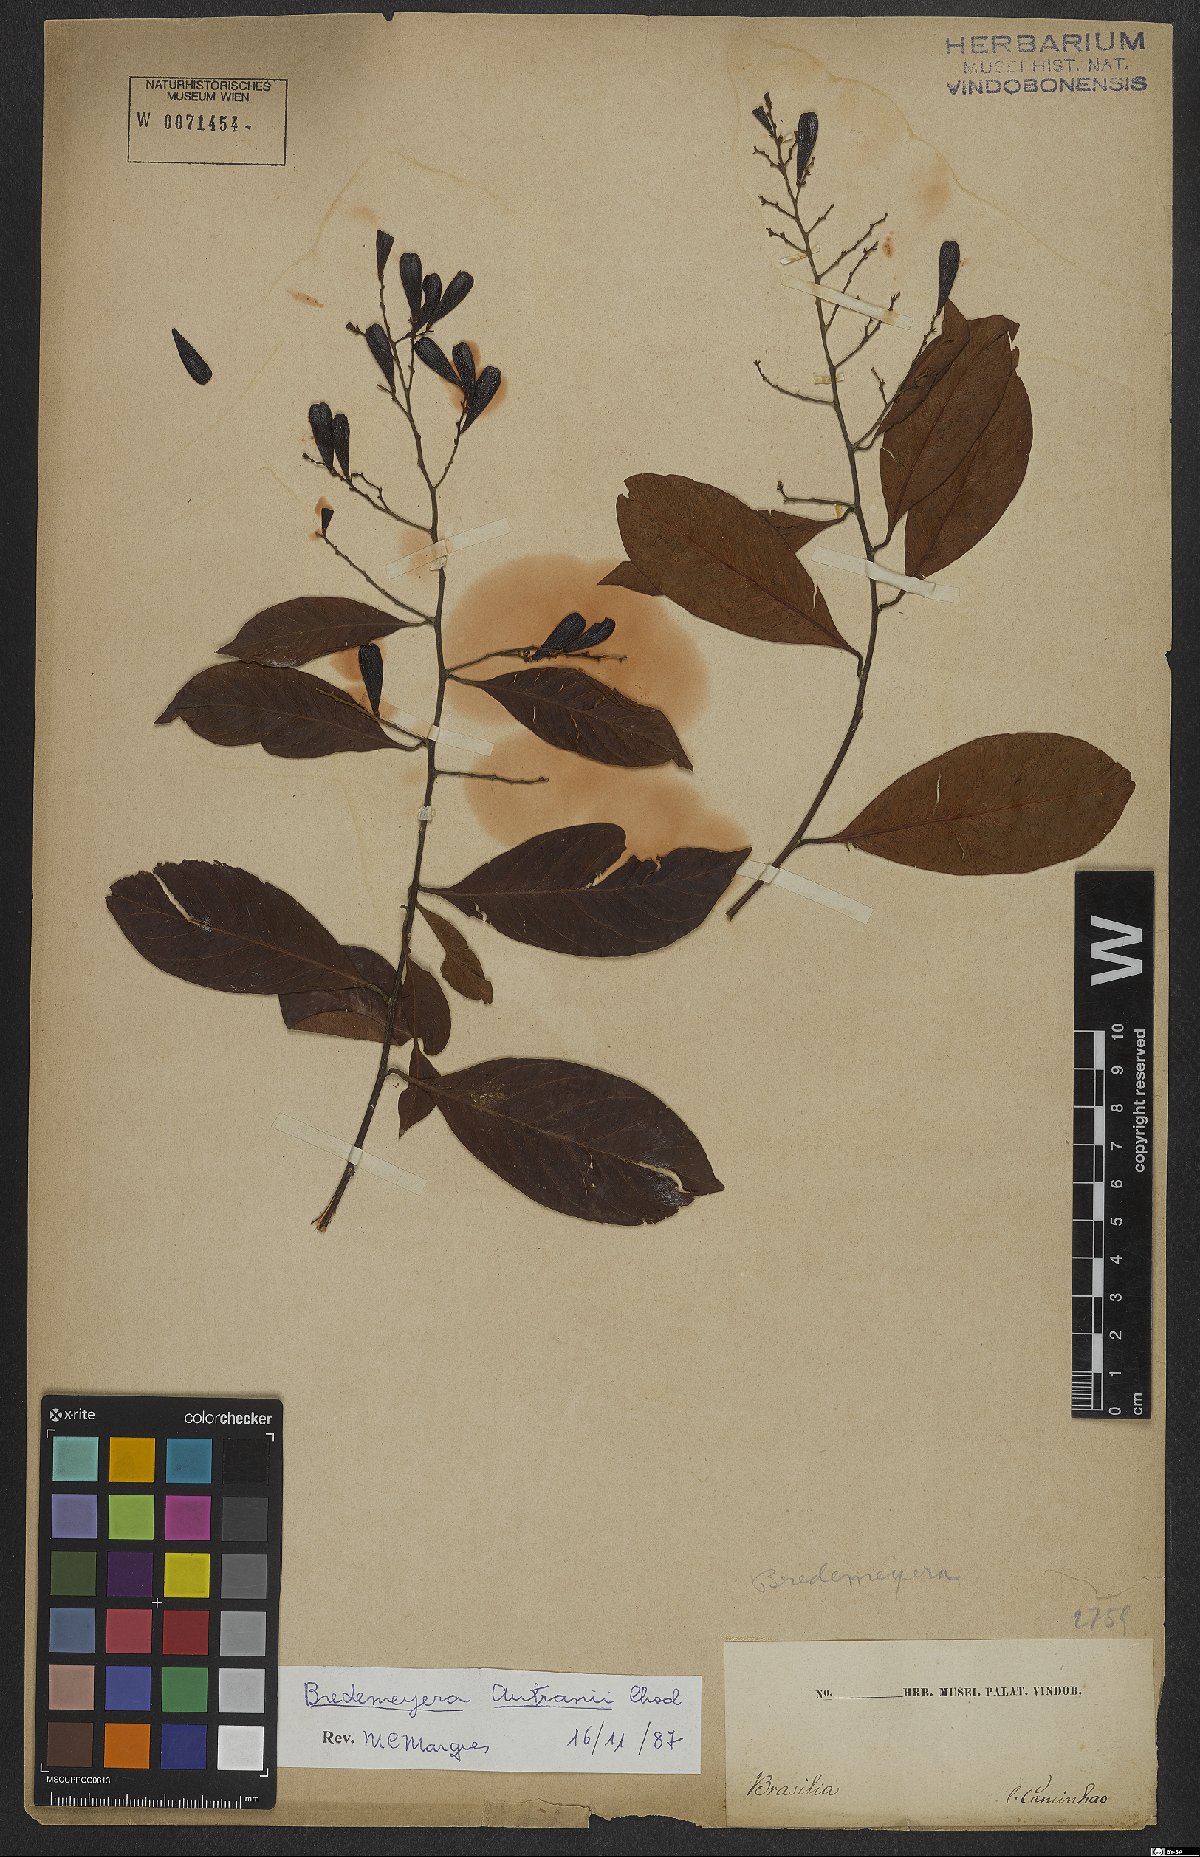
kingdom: Plantae
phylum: Tracheophyta
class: Magnoliopsida
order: Fabales
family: Polygalaceae
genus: Bredemeyera
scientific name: Bredemeyera disperma
